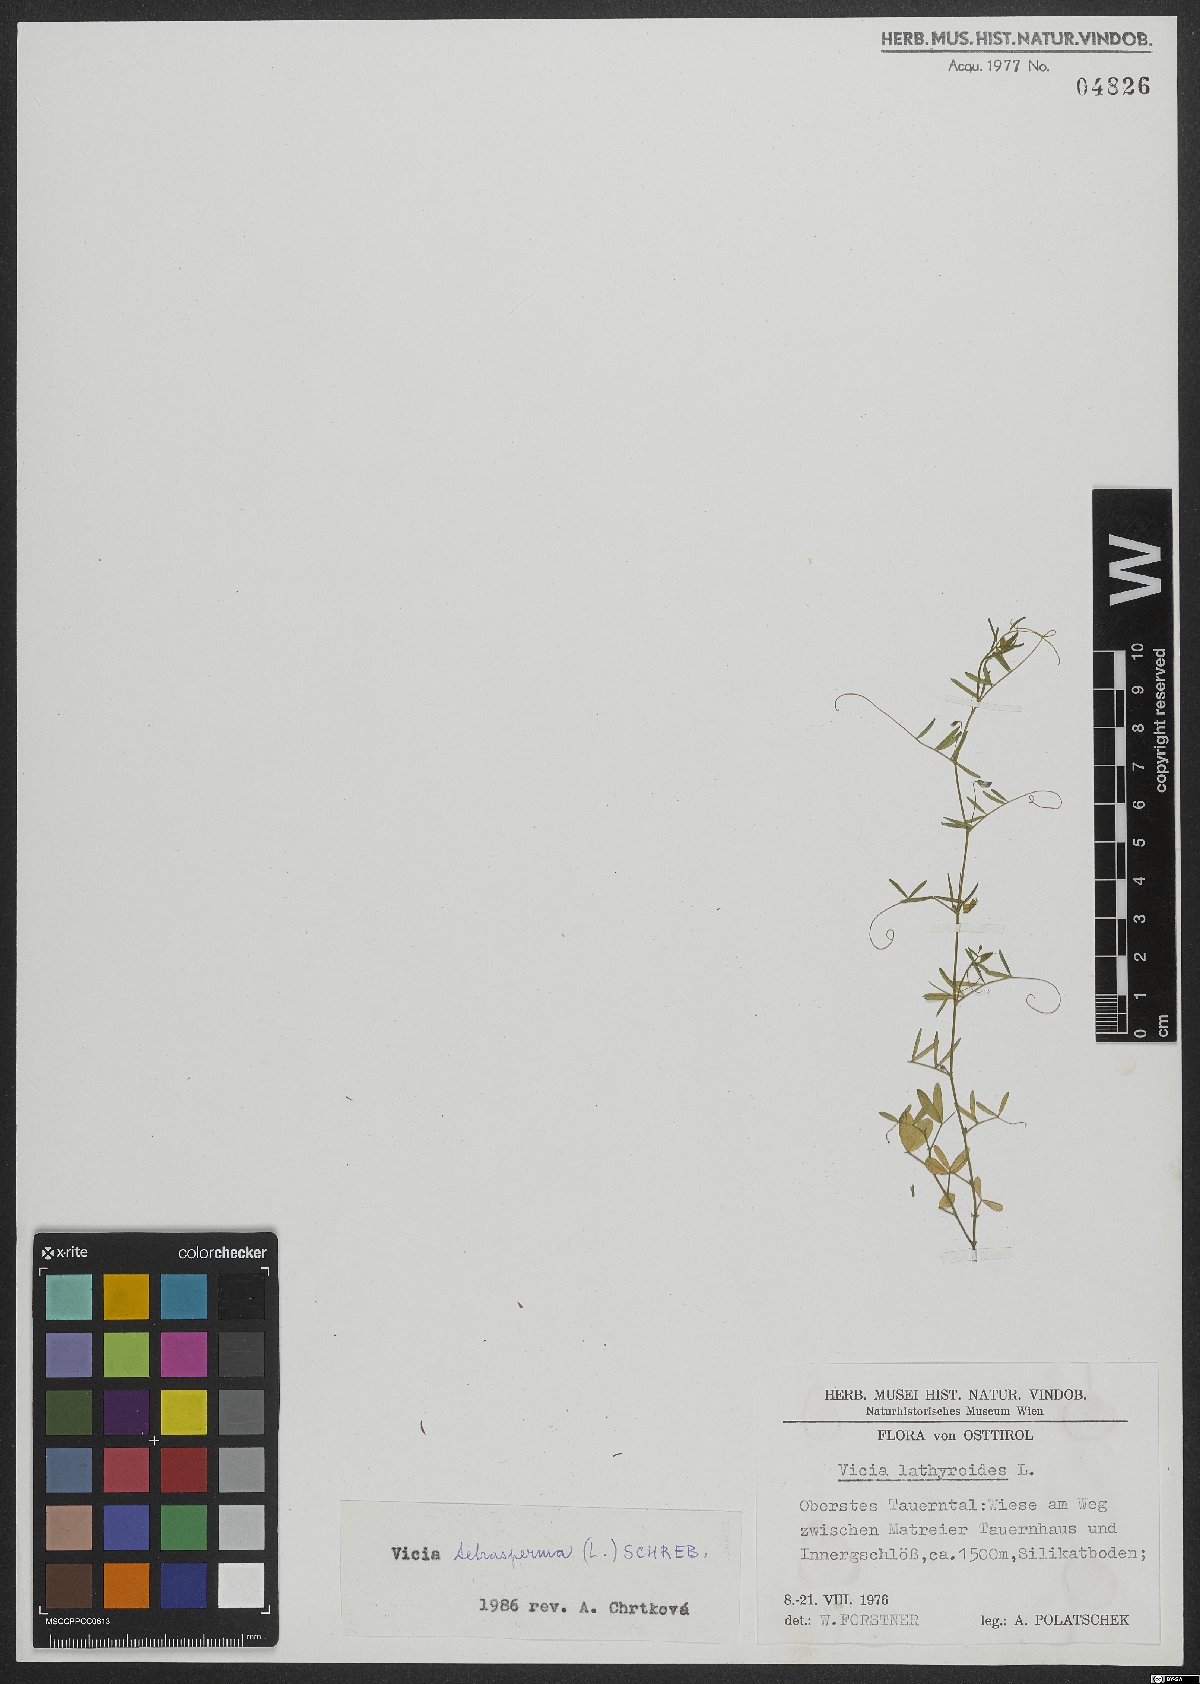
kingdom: Plantae
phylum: Tracheophyta
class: Magnoliopsida
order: Fabales
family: Fabaceae
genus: Vicia
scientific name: Vicia tetrasperma
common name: Smooth tare
